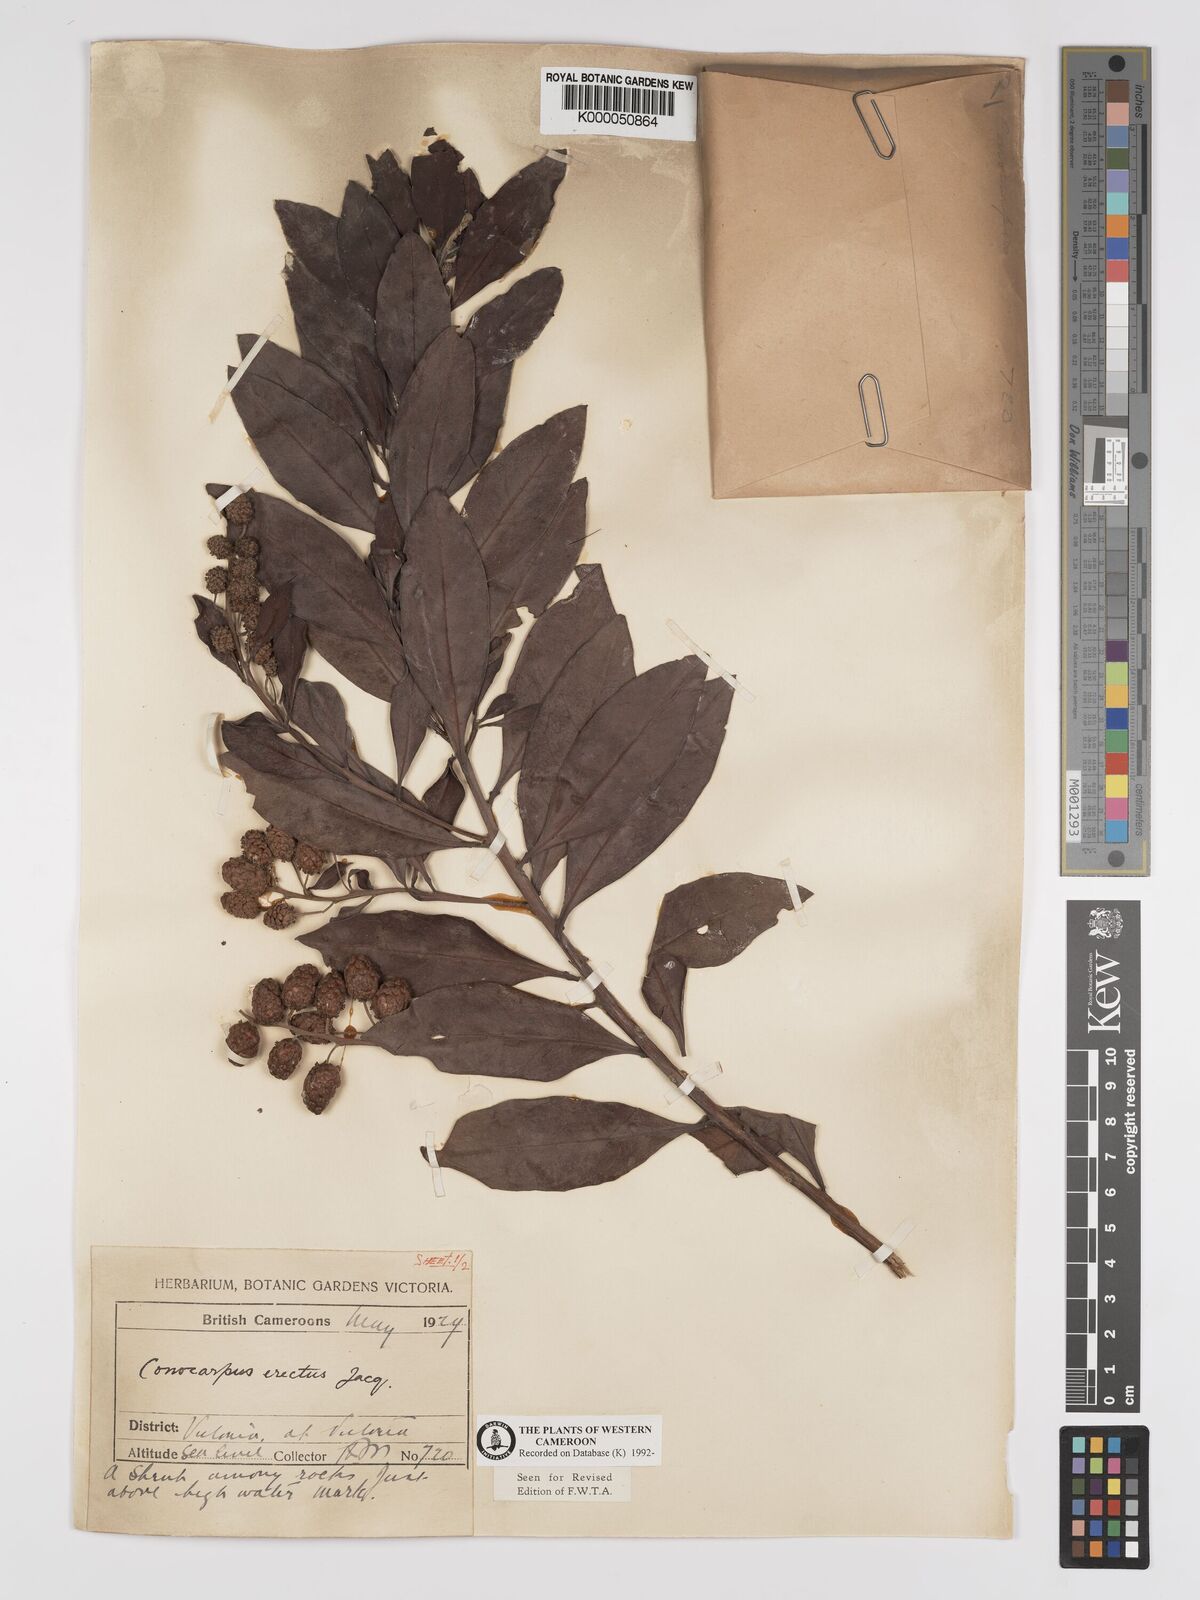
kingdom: Plantae
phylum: Tracheophyta
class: Magnoliopsida
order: Myrtales
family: Combretaceae
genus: Conocarpus
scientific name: Conocarpus erectus
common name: Button mangrove
